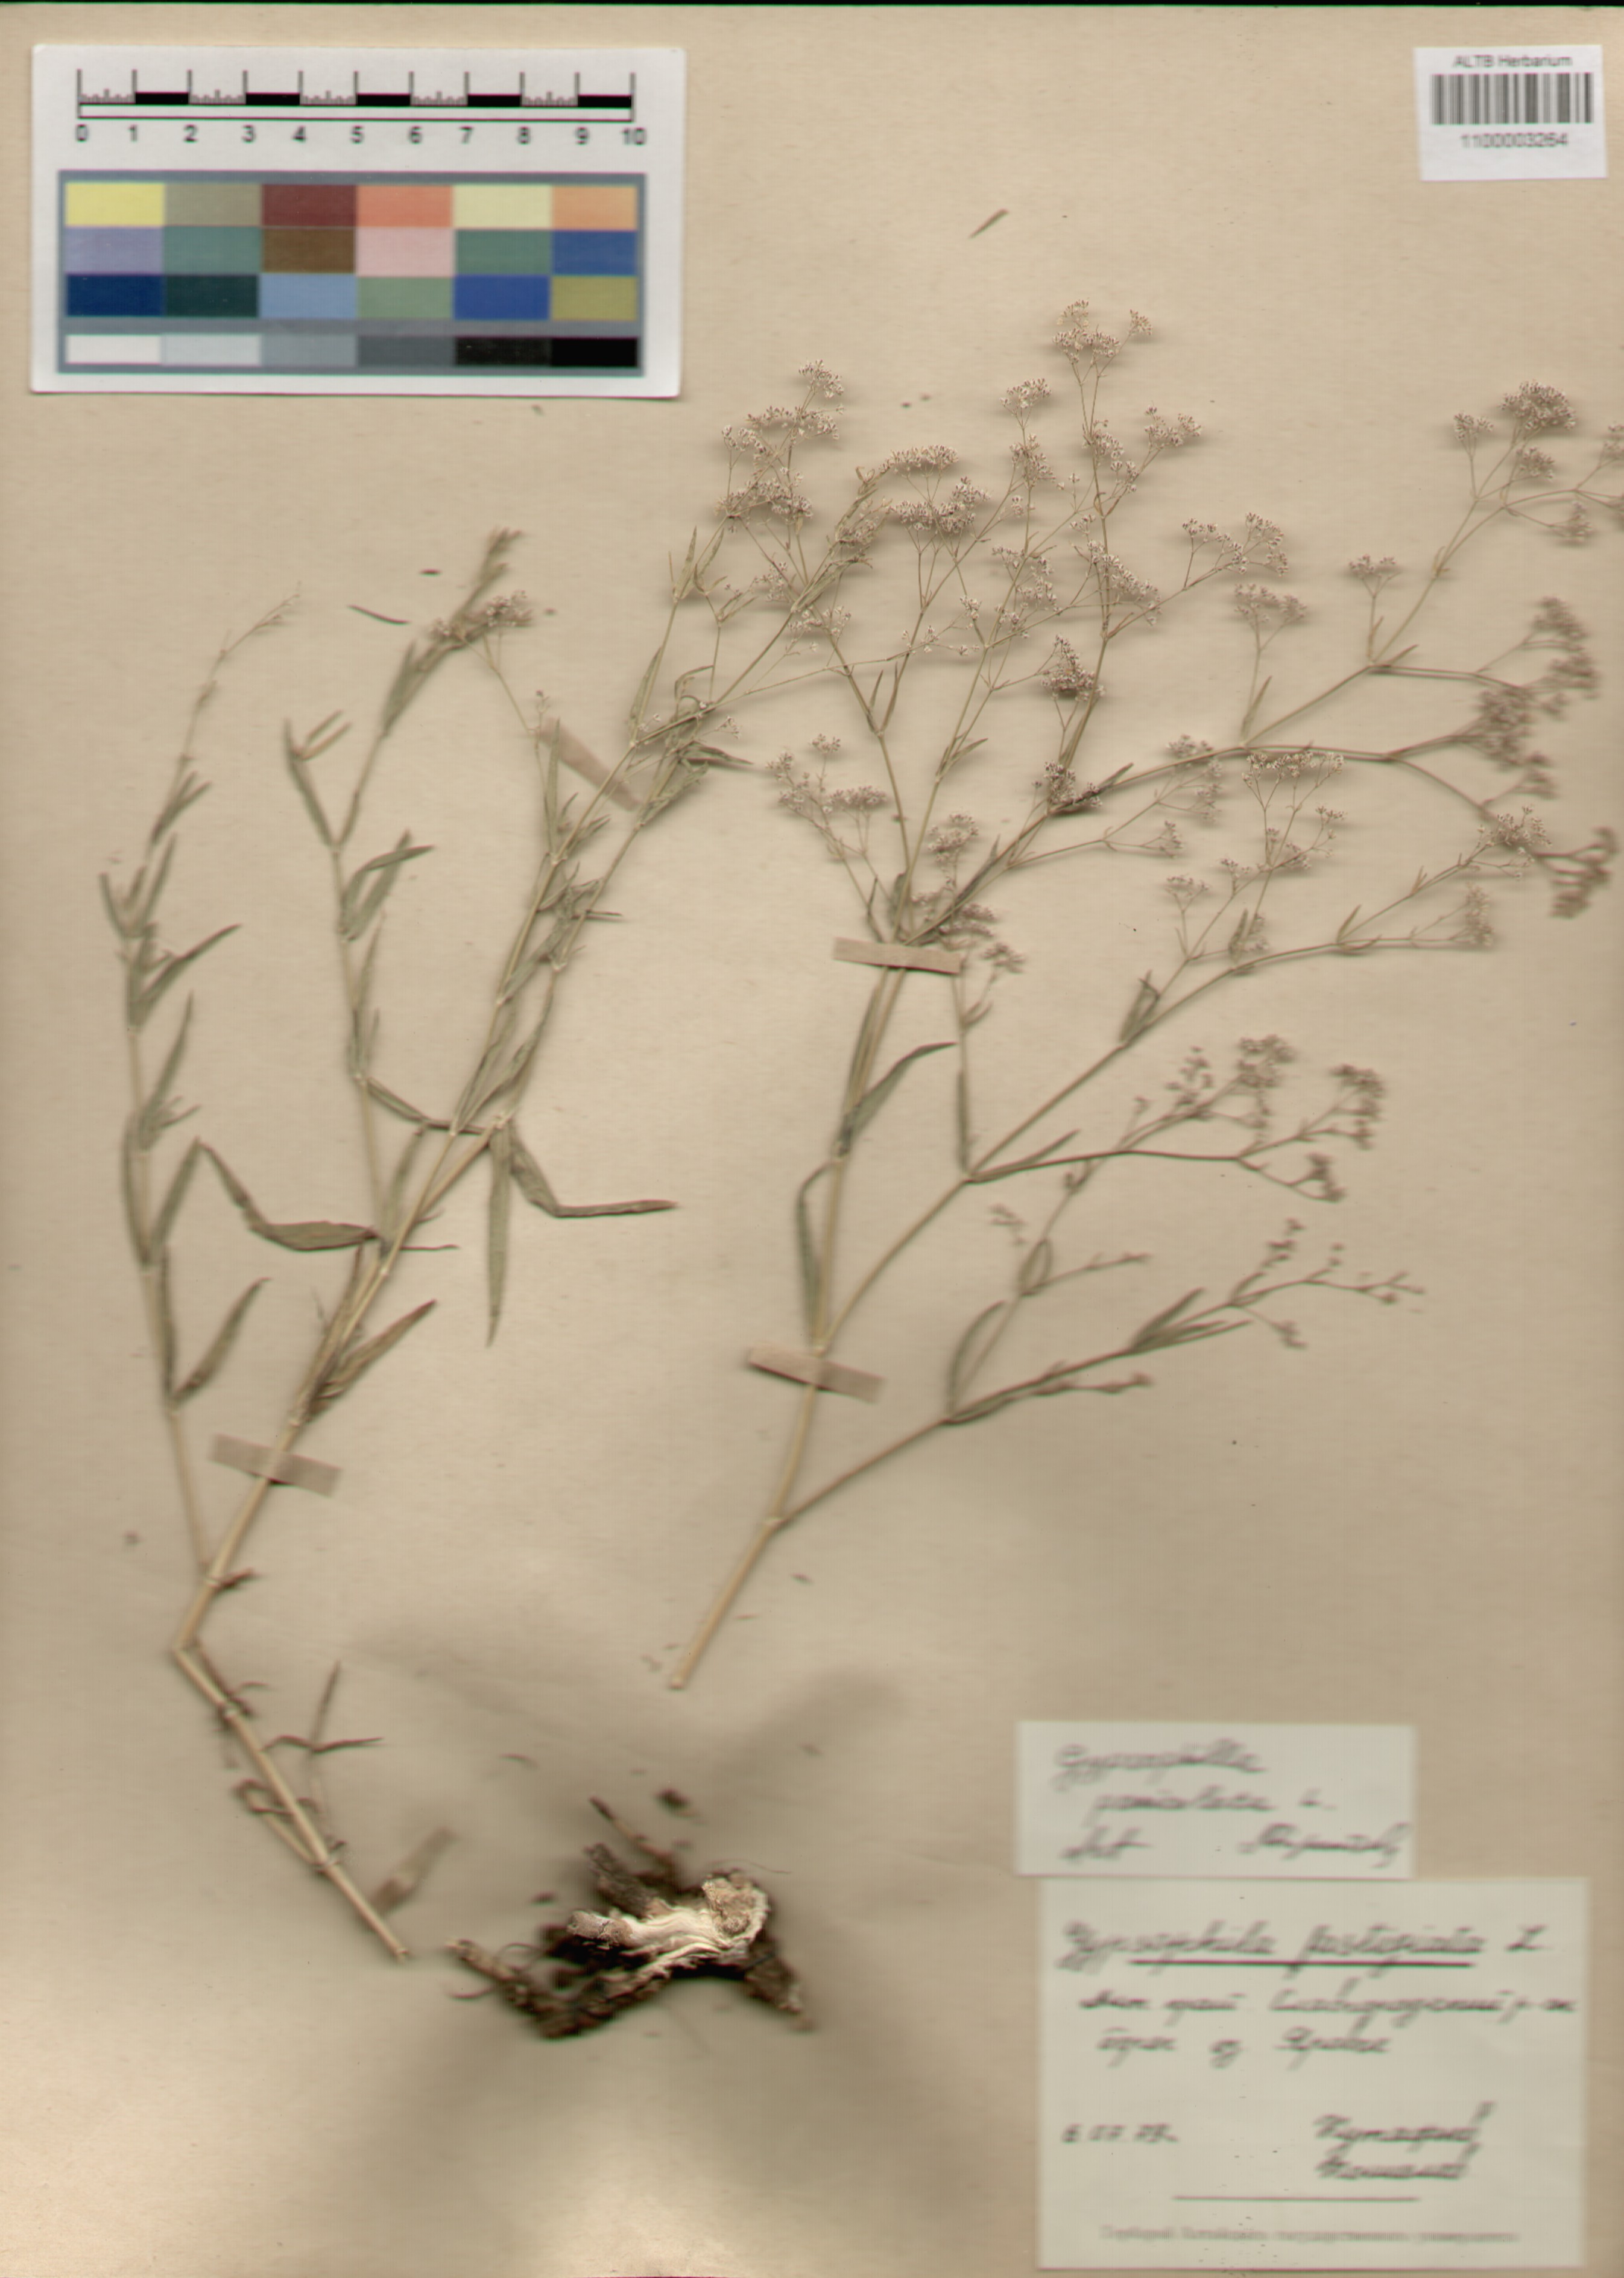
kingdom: Plantae
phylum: Tracheophyta
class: Magnoliopsida
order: Caryophyllales
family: Caryophyllaceae
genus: Gypsophila
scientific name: Gypsophila paniculata
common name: Baby's-breath
